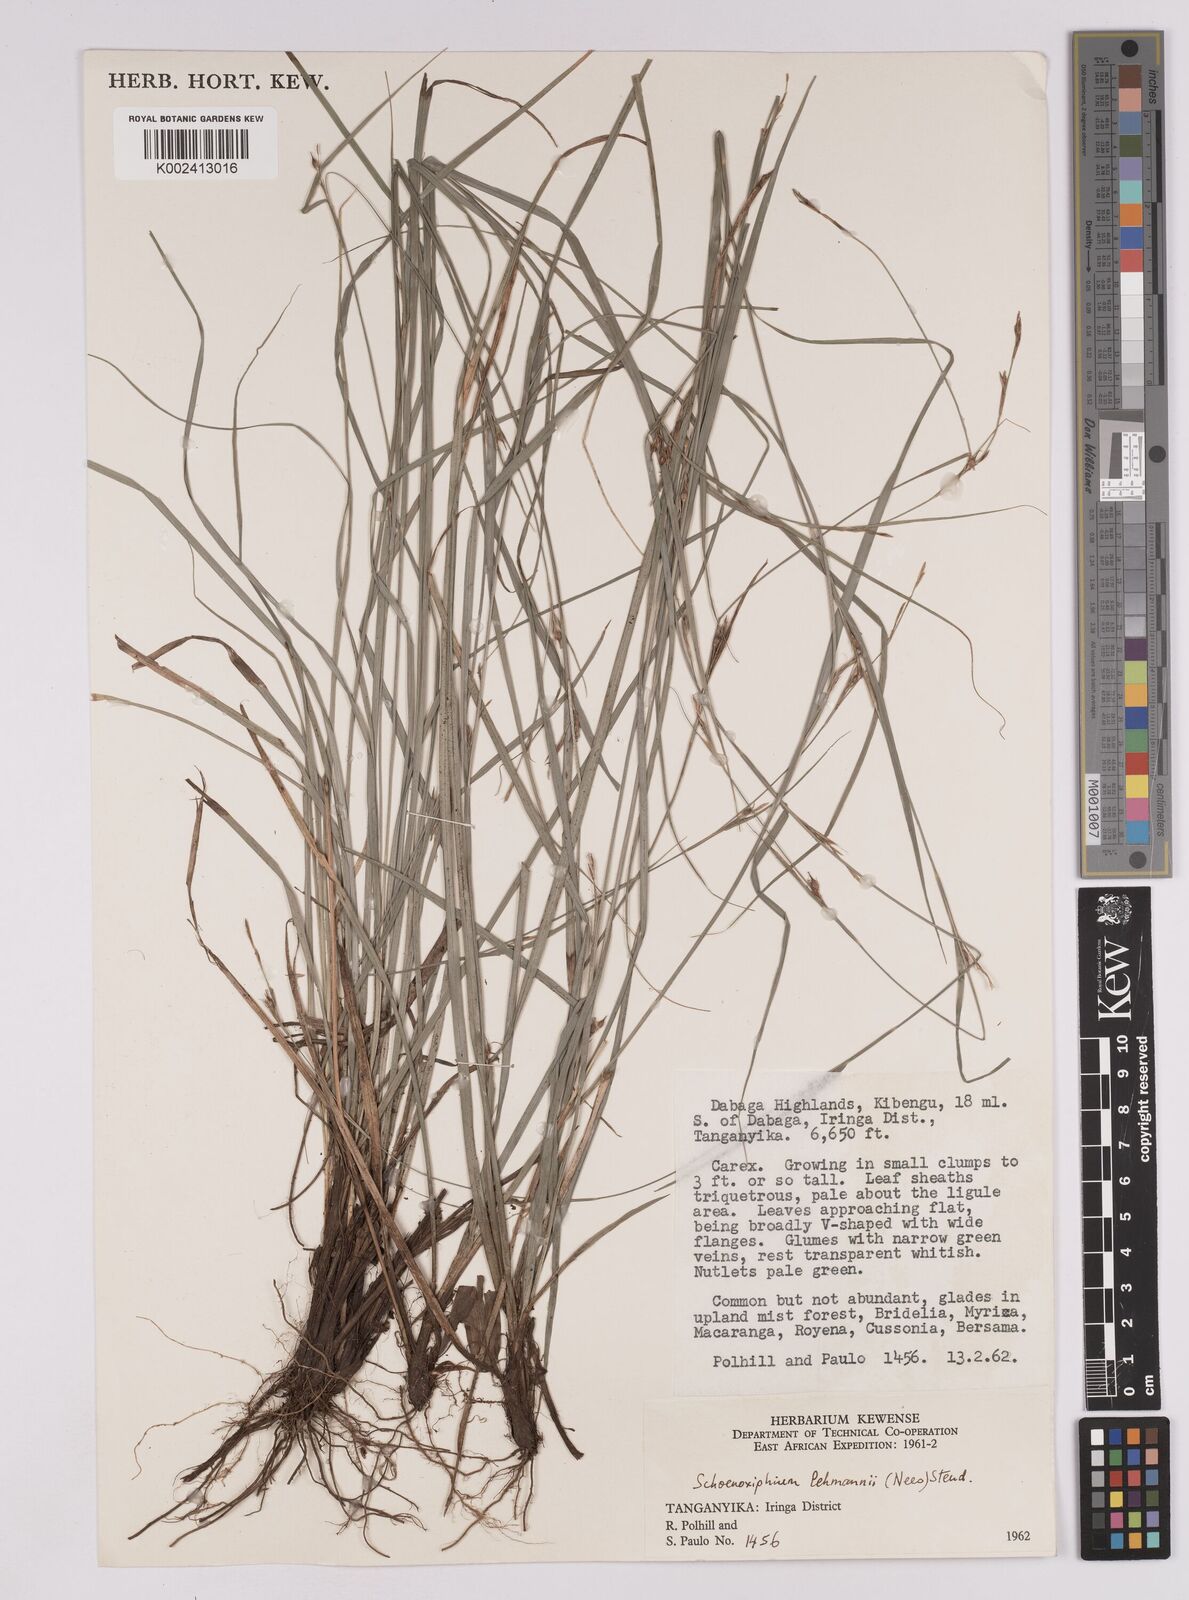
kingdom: Plantae
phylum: Tracheophyta
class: Liliopsida
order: Poales
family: Cyperaceae
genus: Carex
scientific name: Carex uhligii
